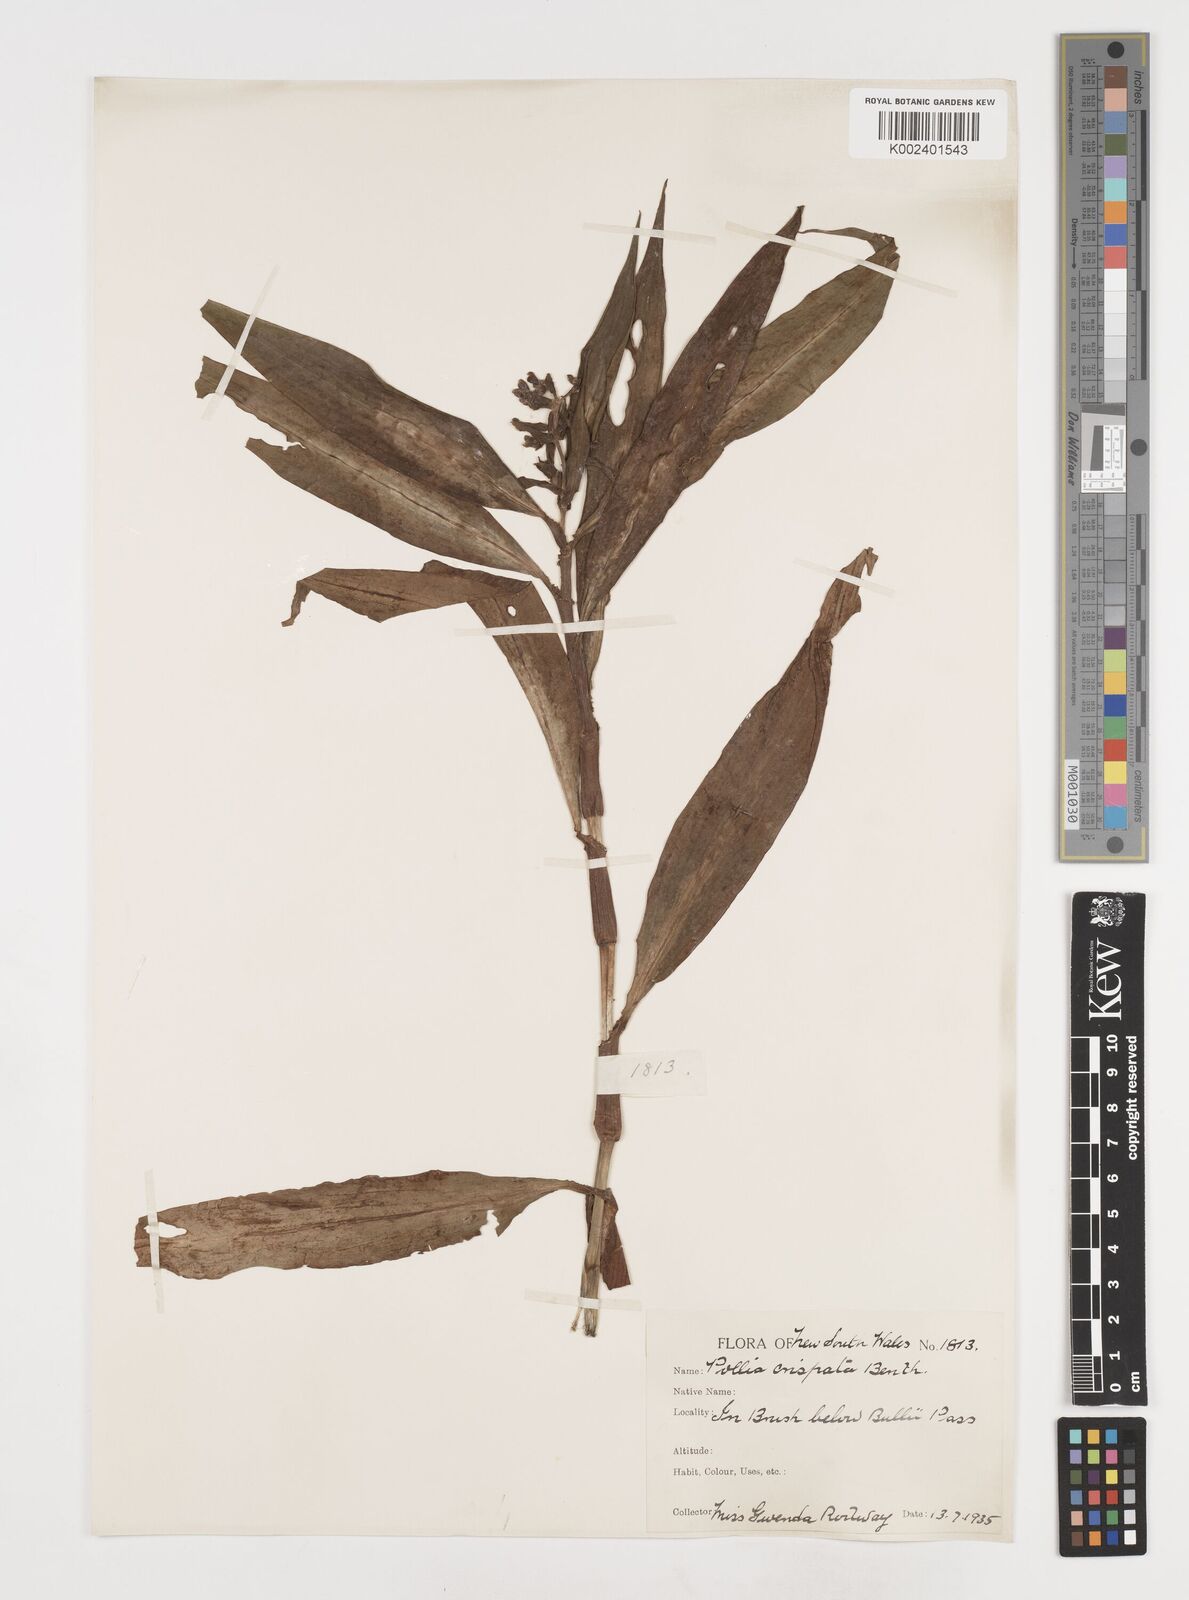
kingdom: Plantae
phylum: Tracheophyta
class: Liliopsida
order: Commelinales
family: Commelinaceae
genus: Pollia
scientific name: Pollia crispata
